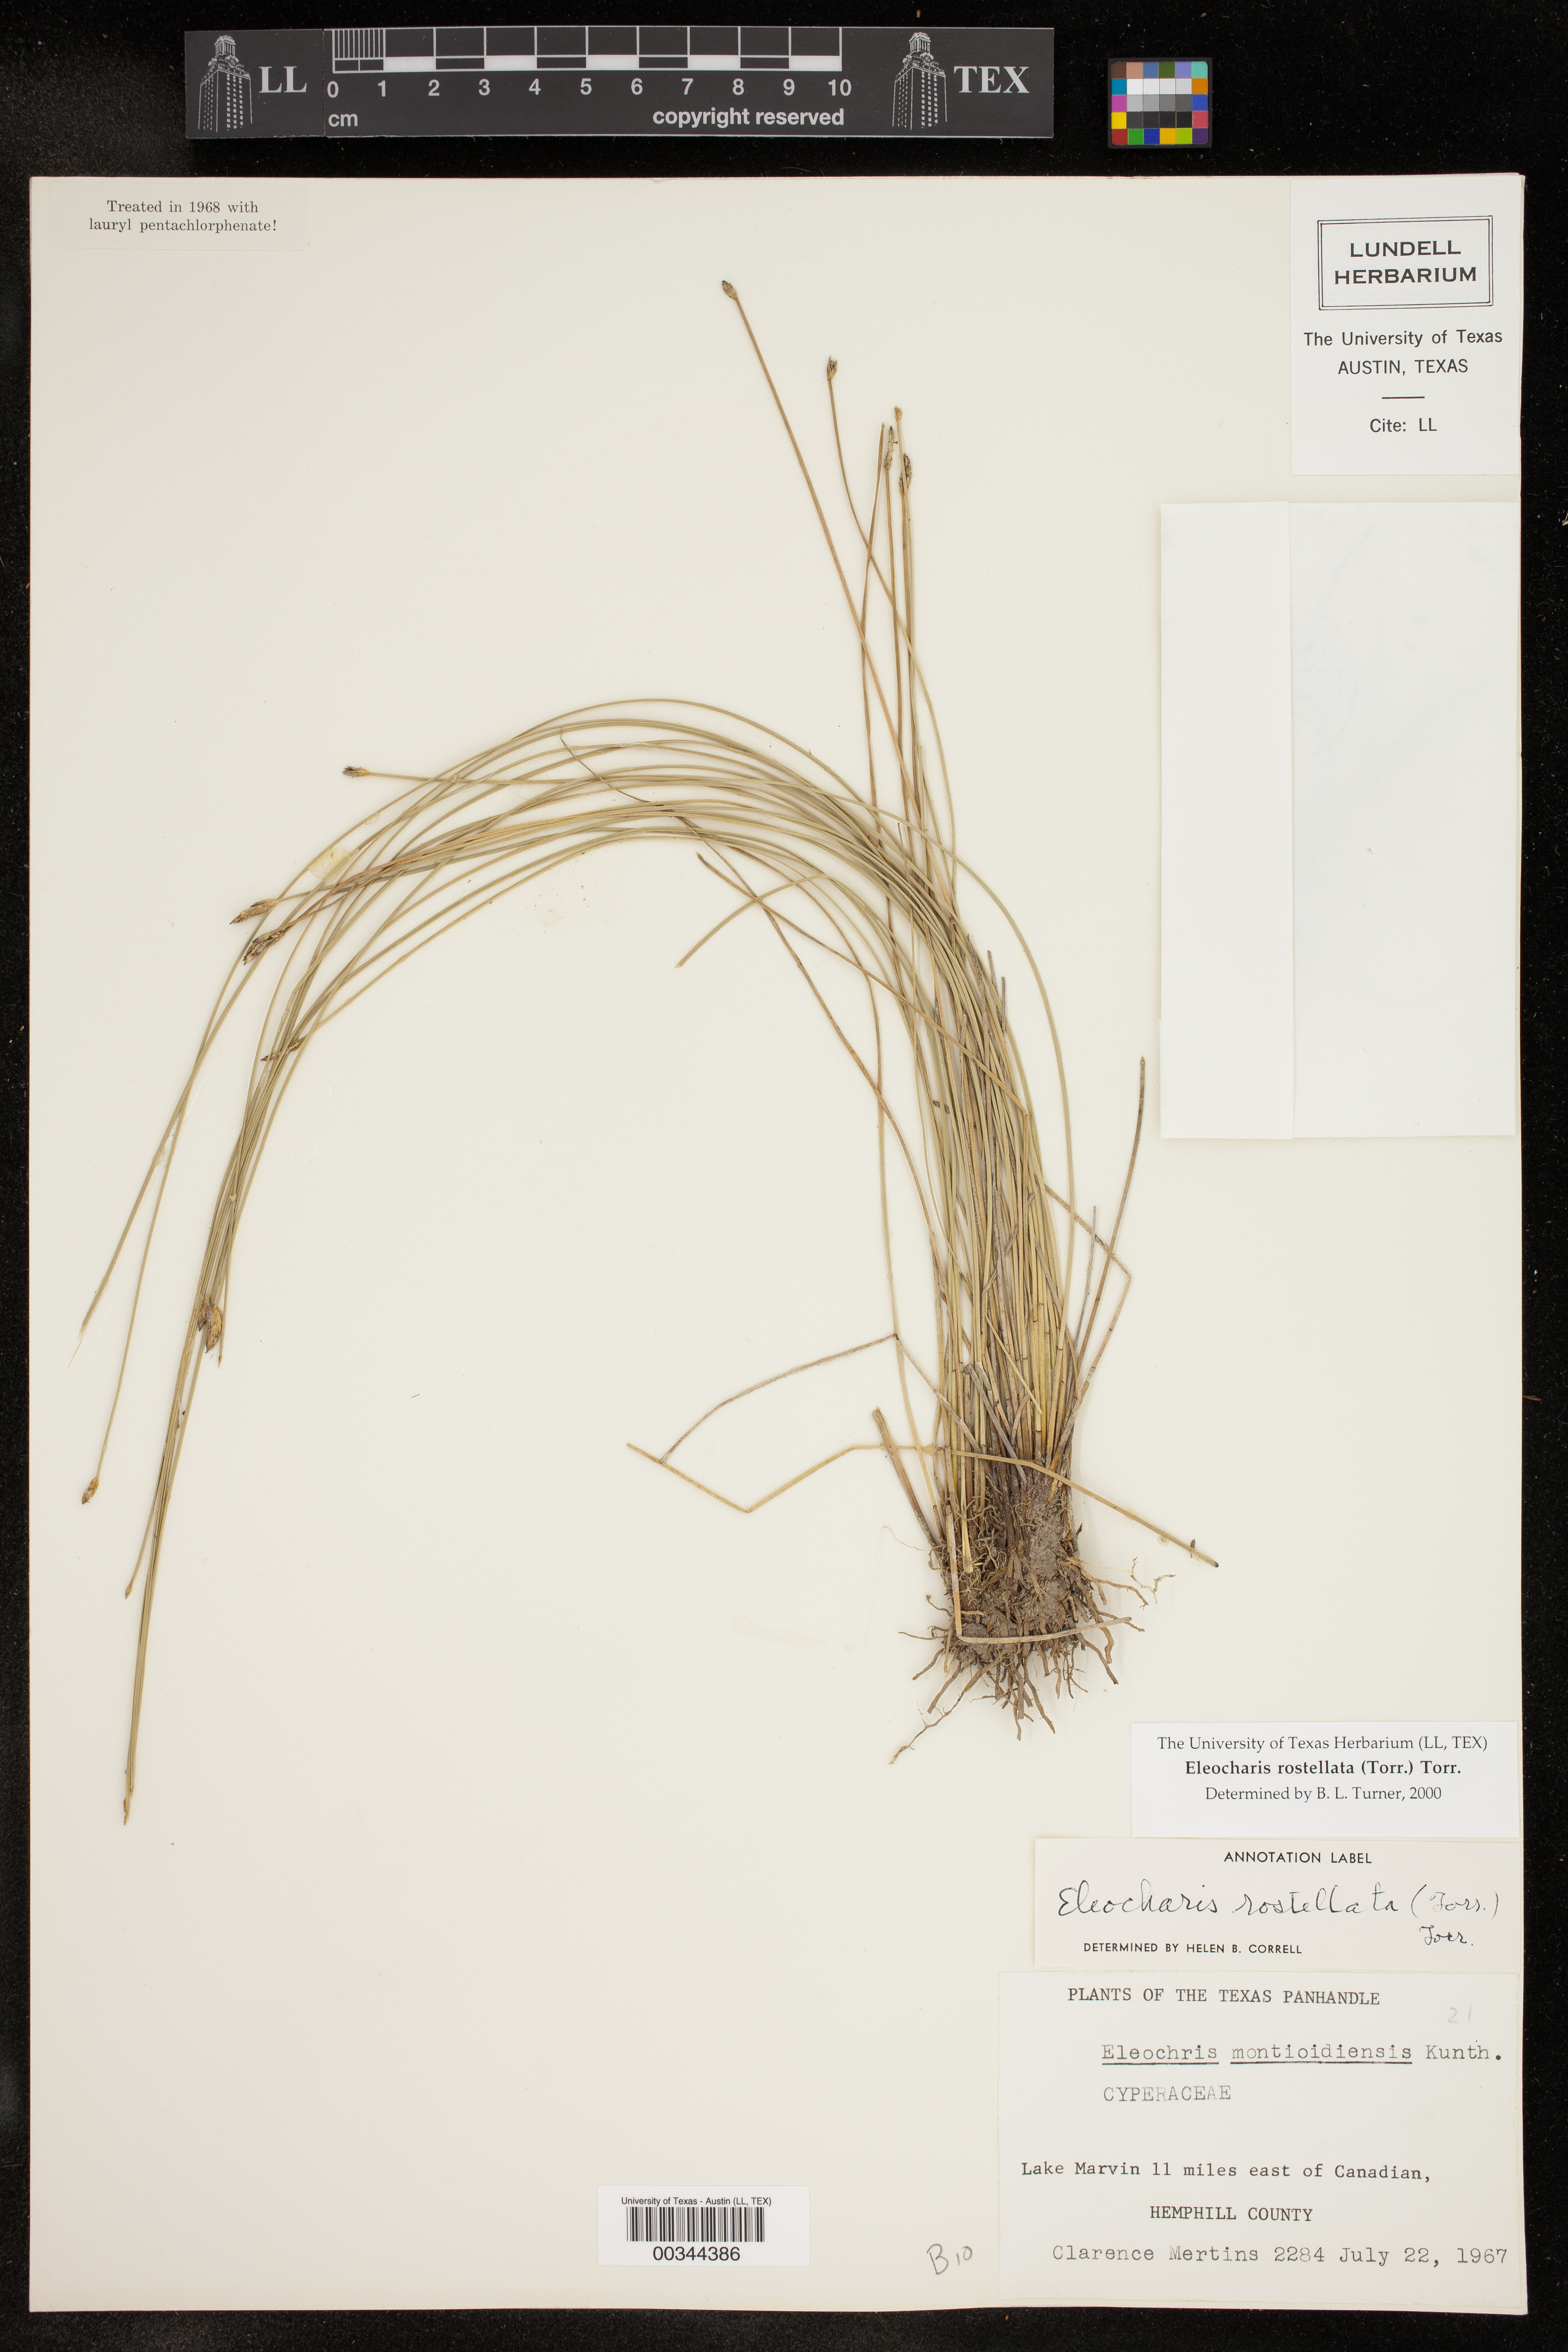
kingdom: Plantae
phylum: Tracheophyta
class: Liliopsida
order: Poales
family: Cyperaceae
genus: Eleocharis
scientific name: Eleocharis rostellata
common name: Walking sedge
